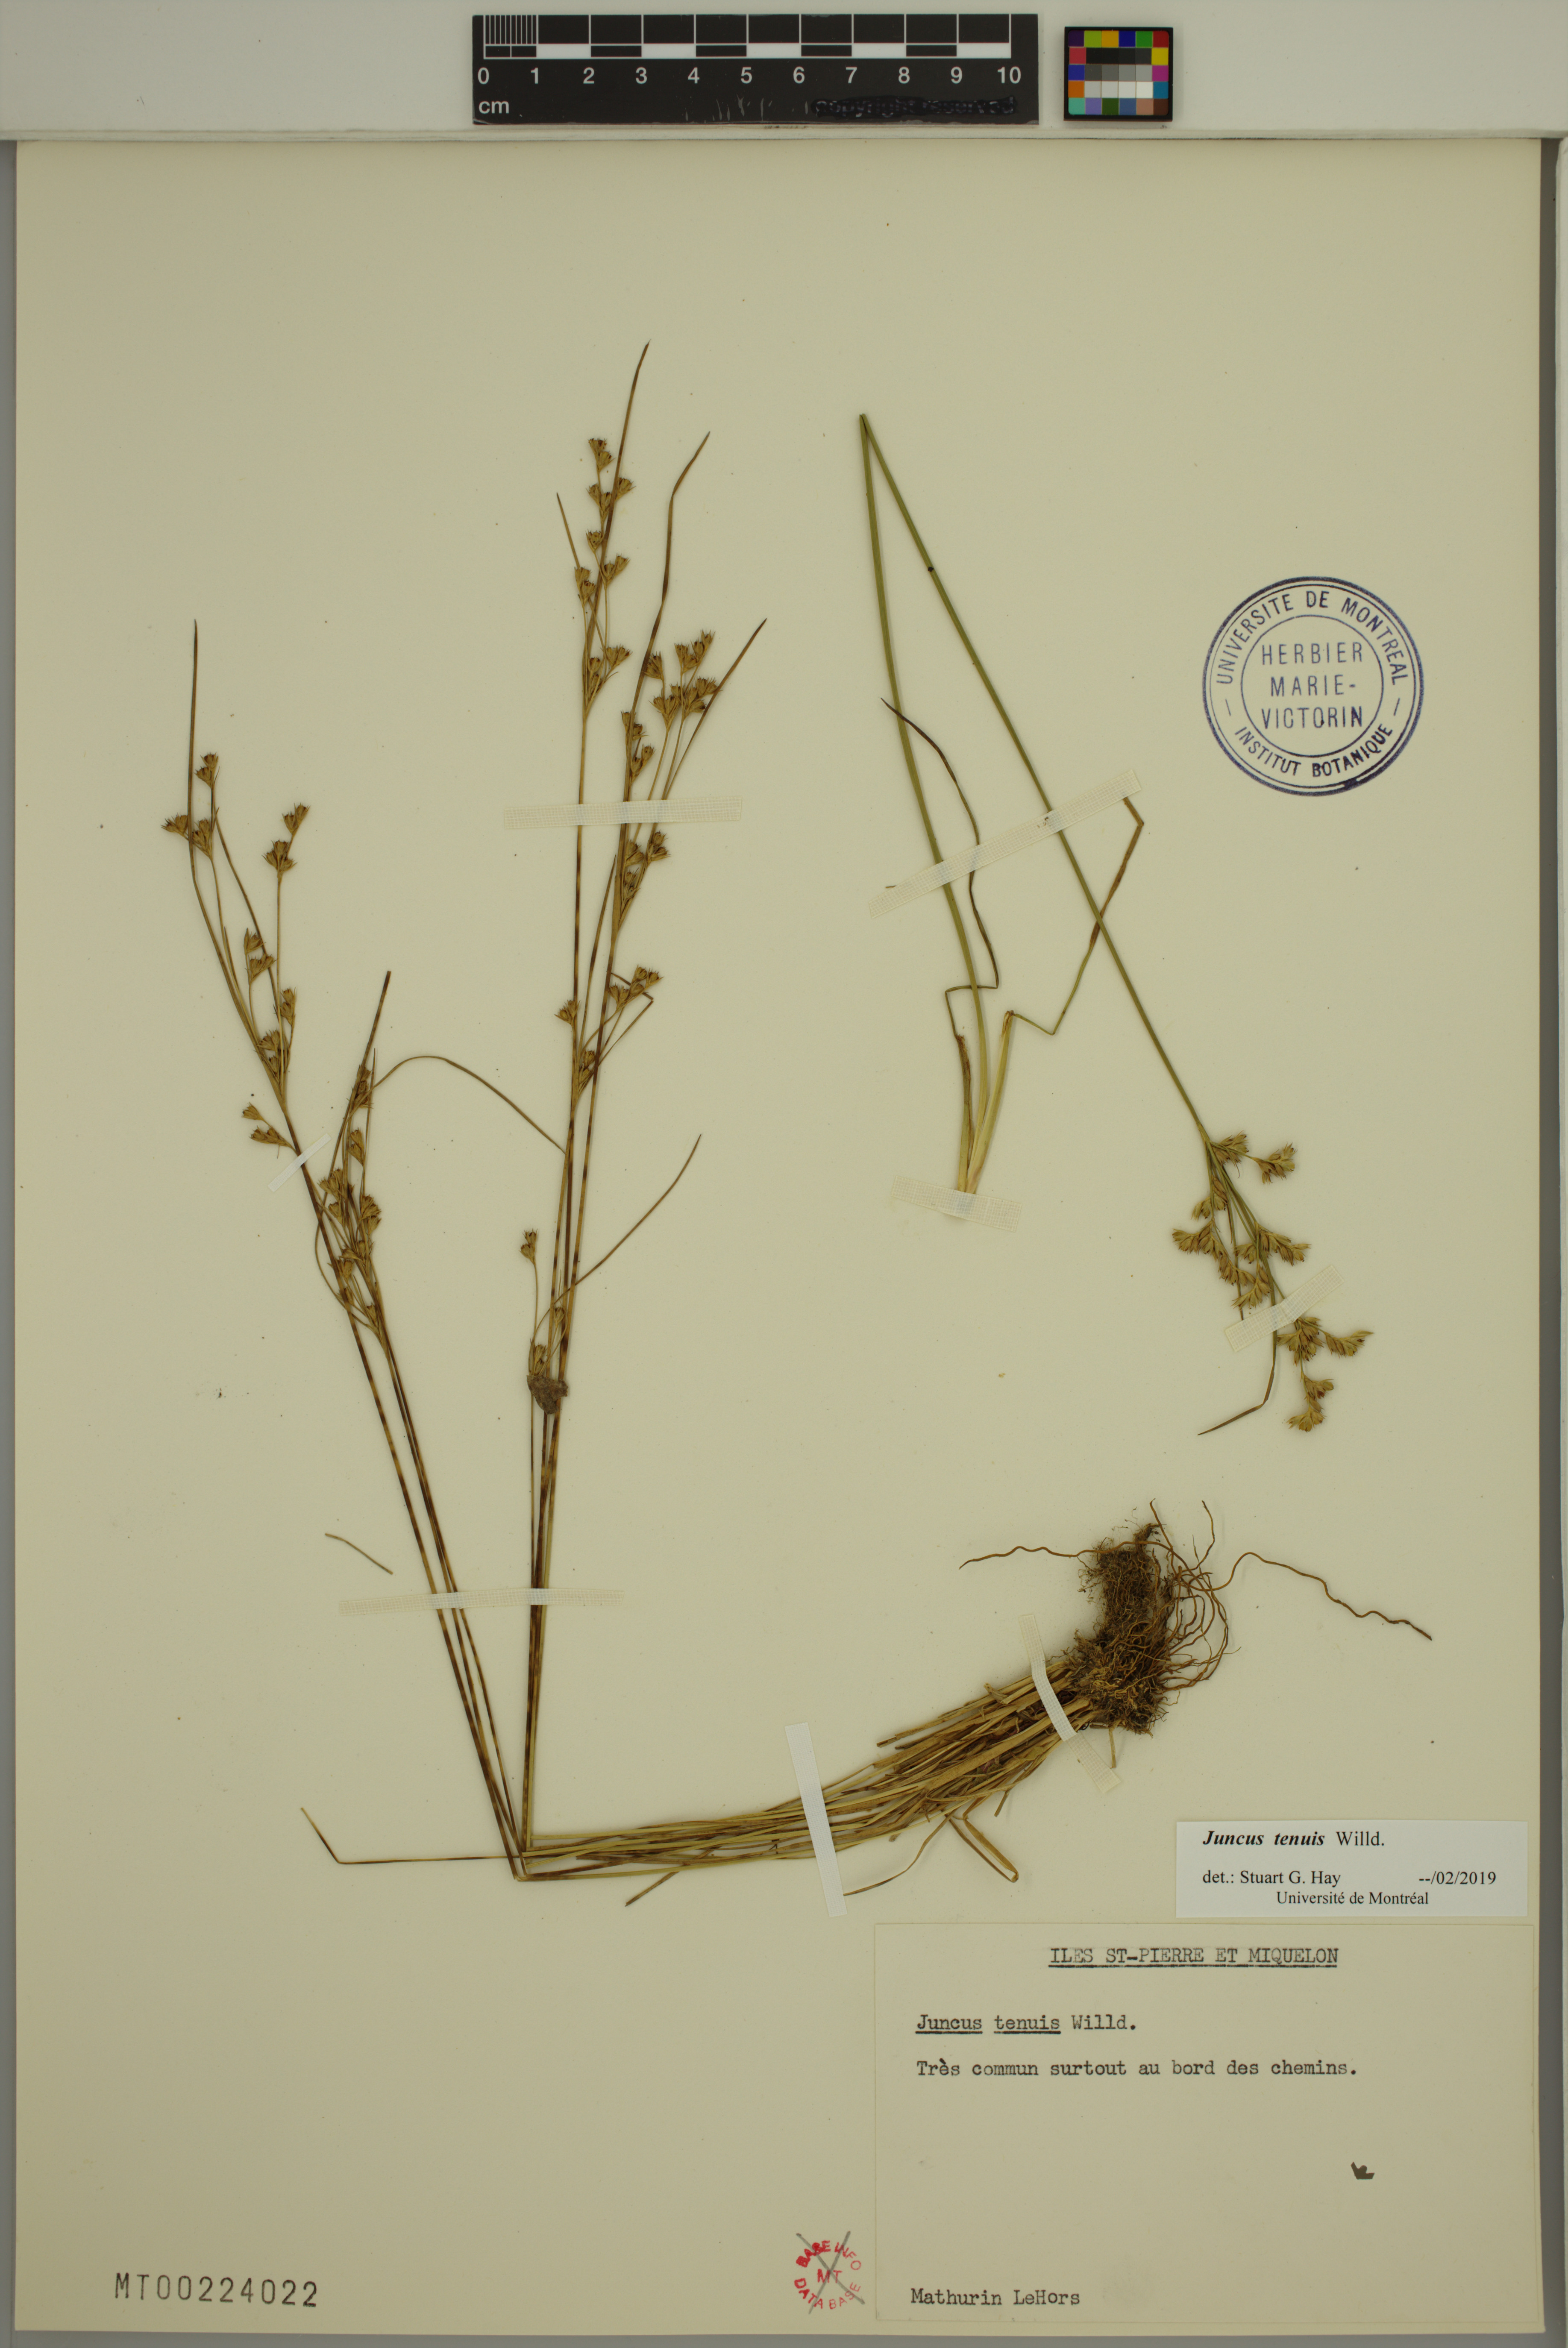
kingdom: Plantae
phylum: Tracheophyta
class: Liliopsida
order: Poales
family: Juncaceae
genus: Juncus
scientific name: Juncus tenuis
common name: Slender rush
